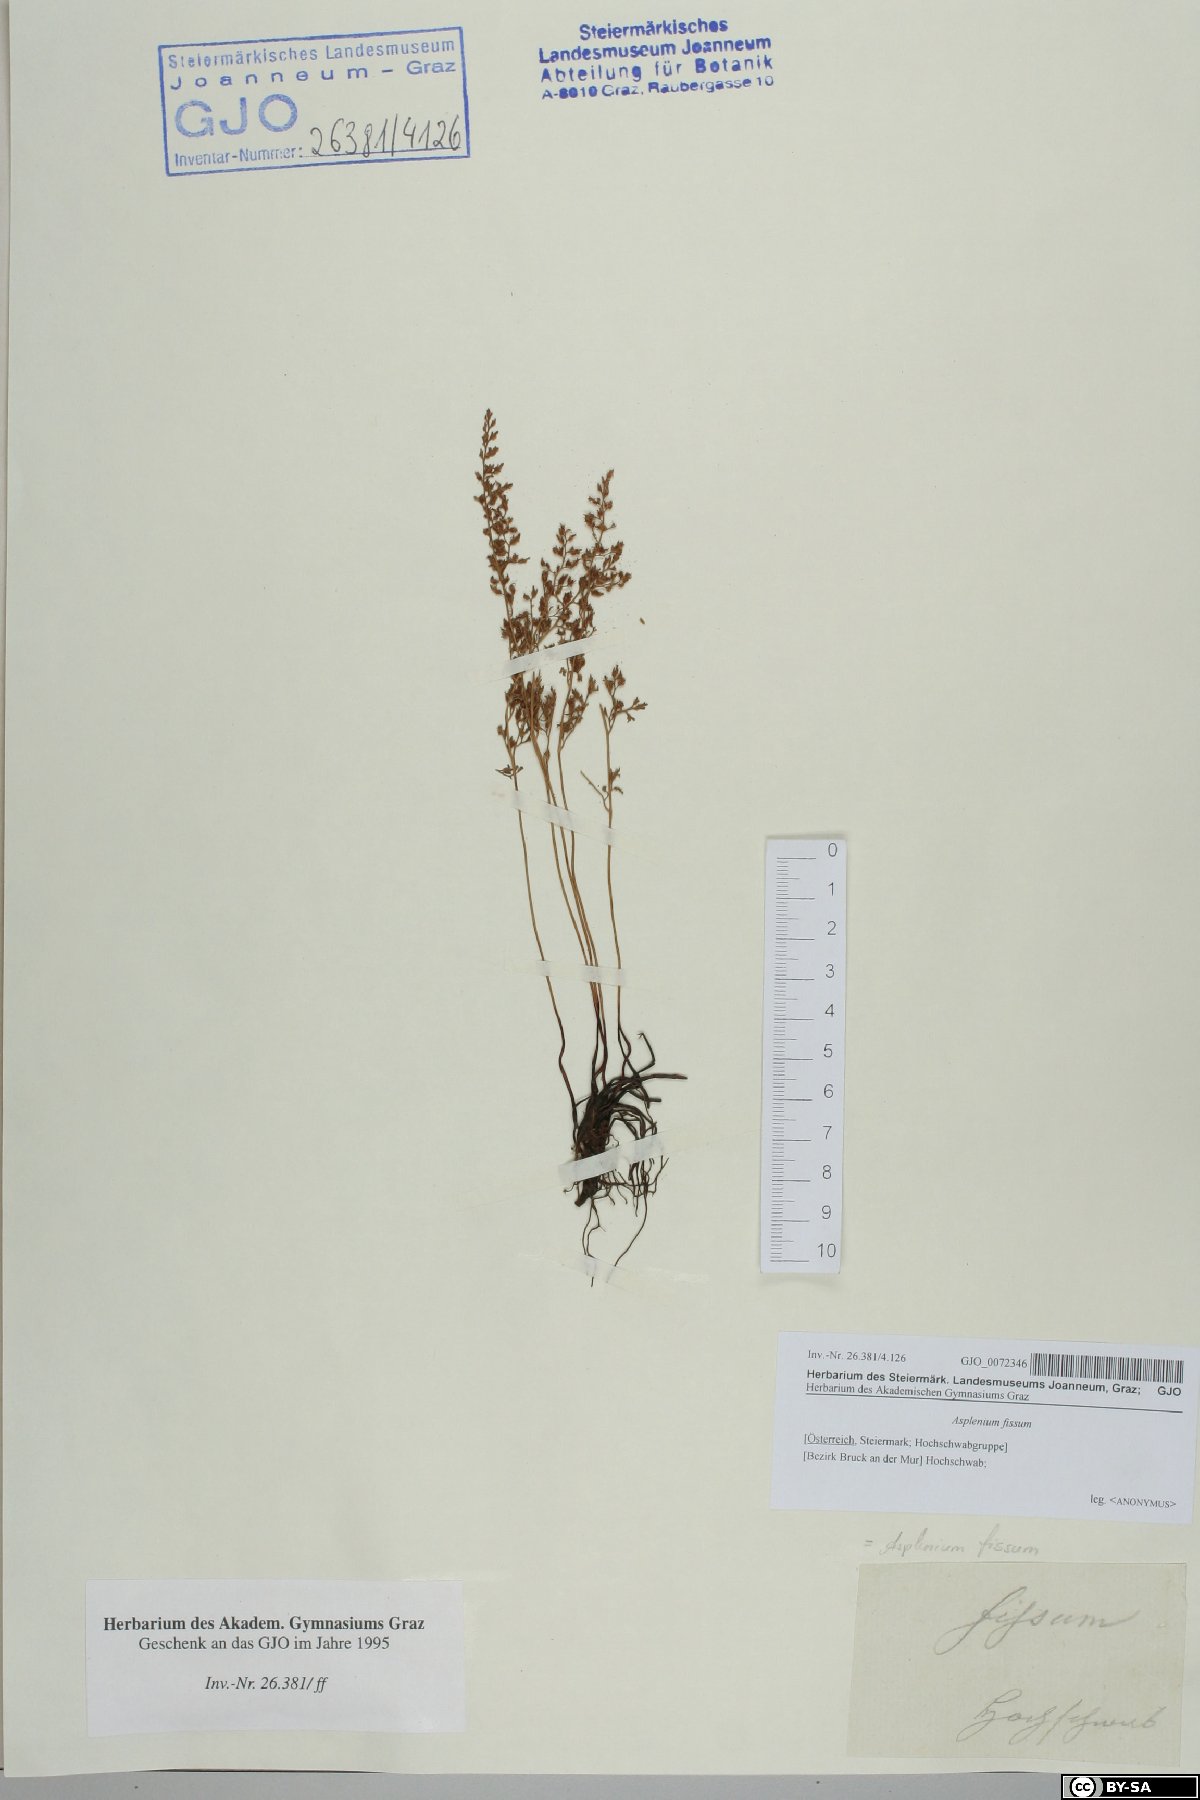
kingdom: Plantae
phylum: Tracheophyta
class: Polypodiopsida
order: Polypodiales
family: Aspleniaceae
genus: Asplenium
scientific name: Asplenium fissum
